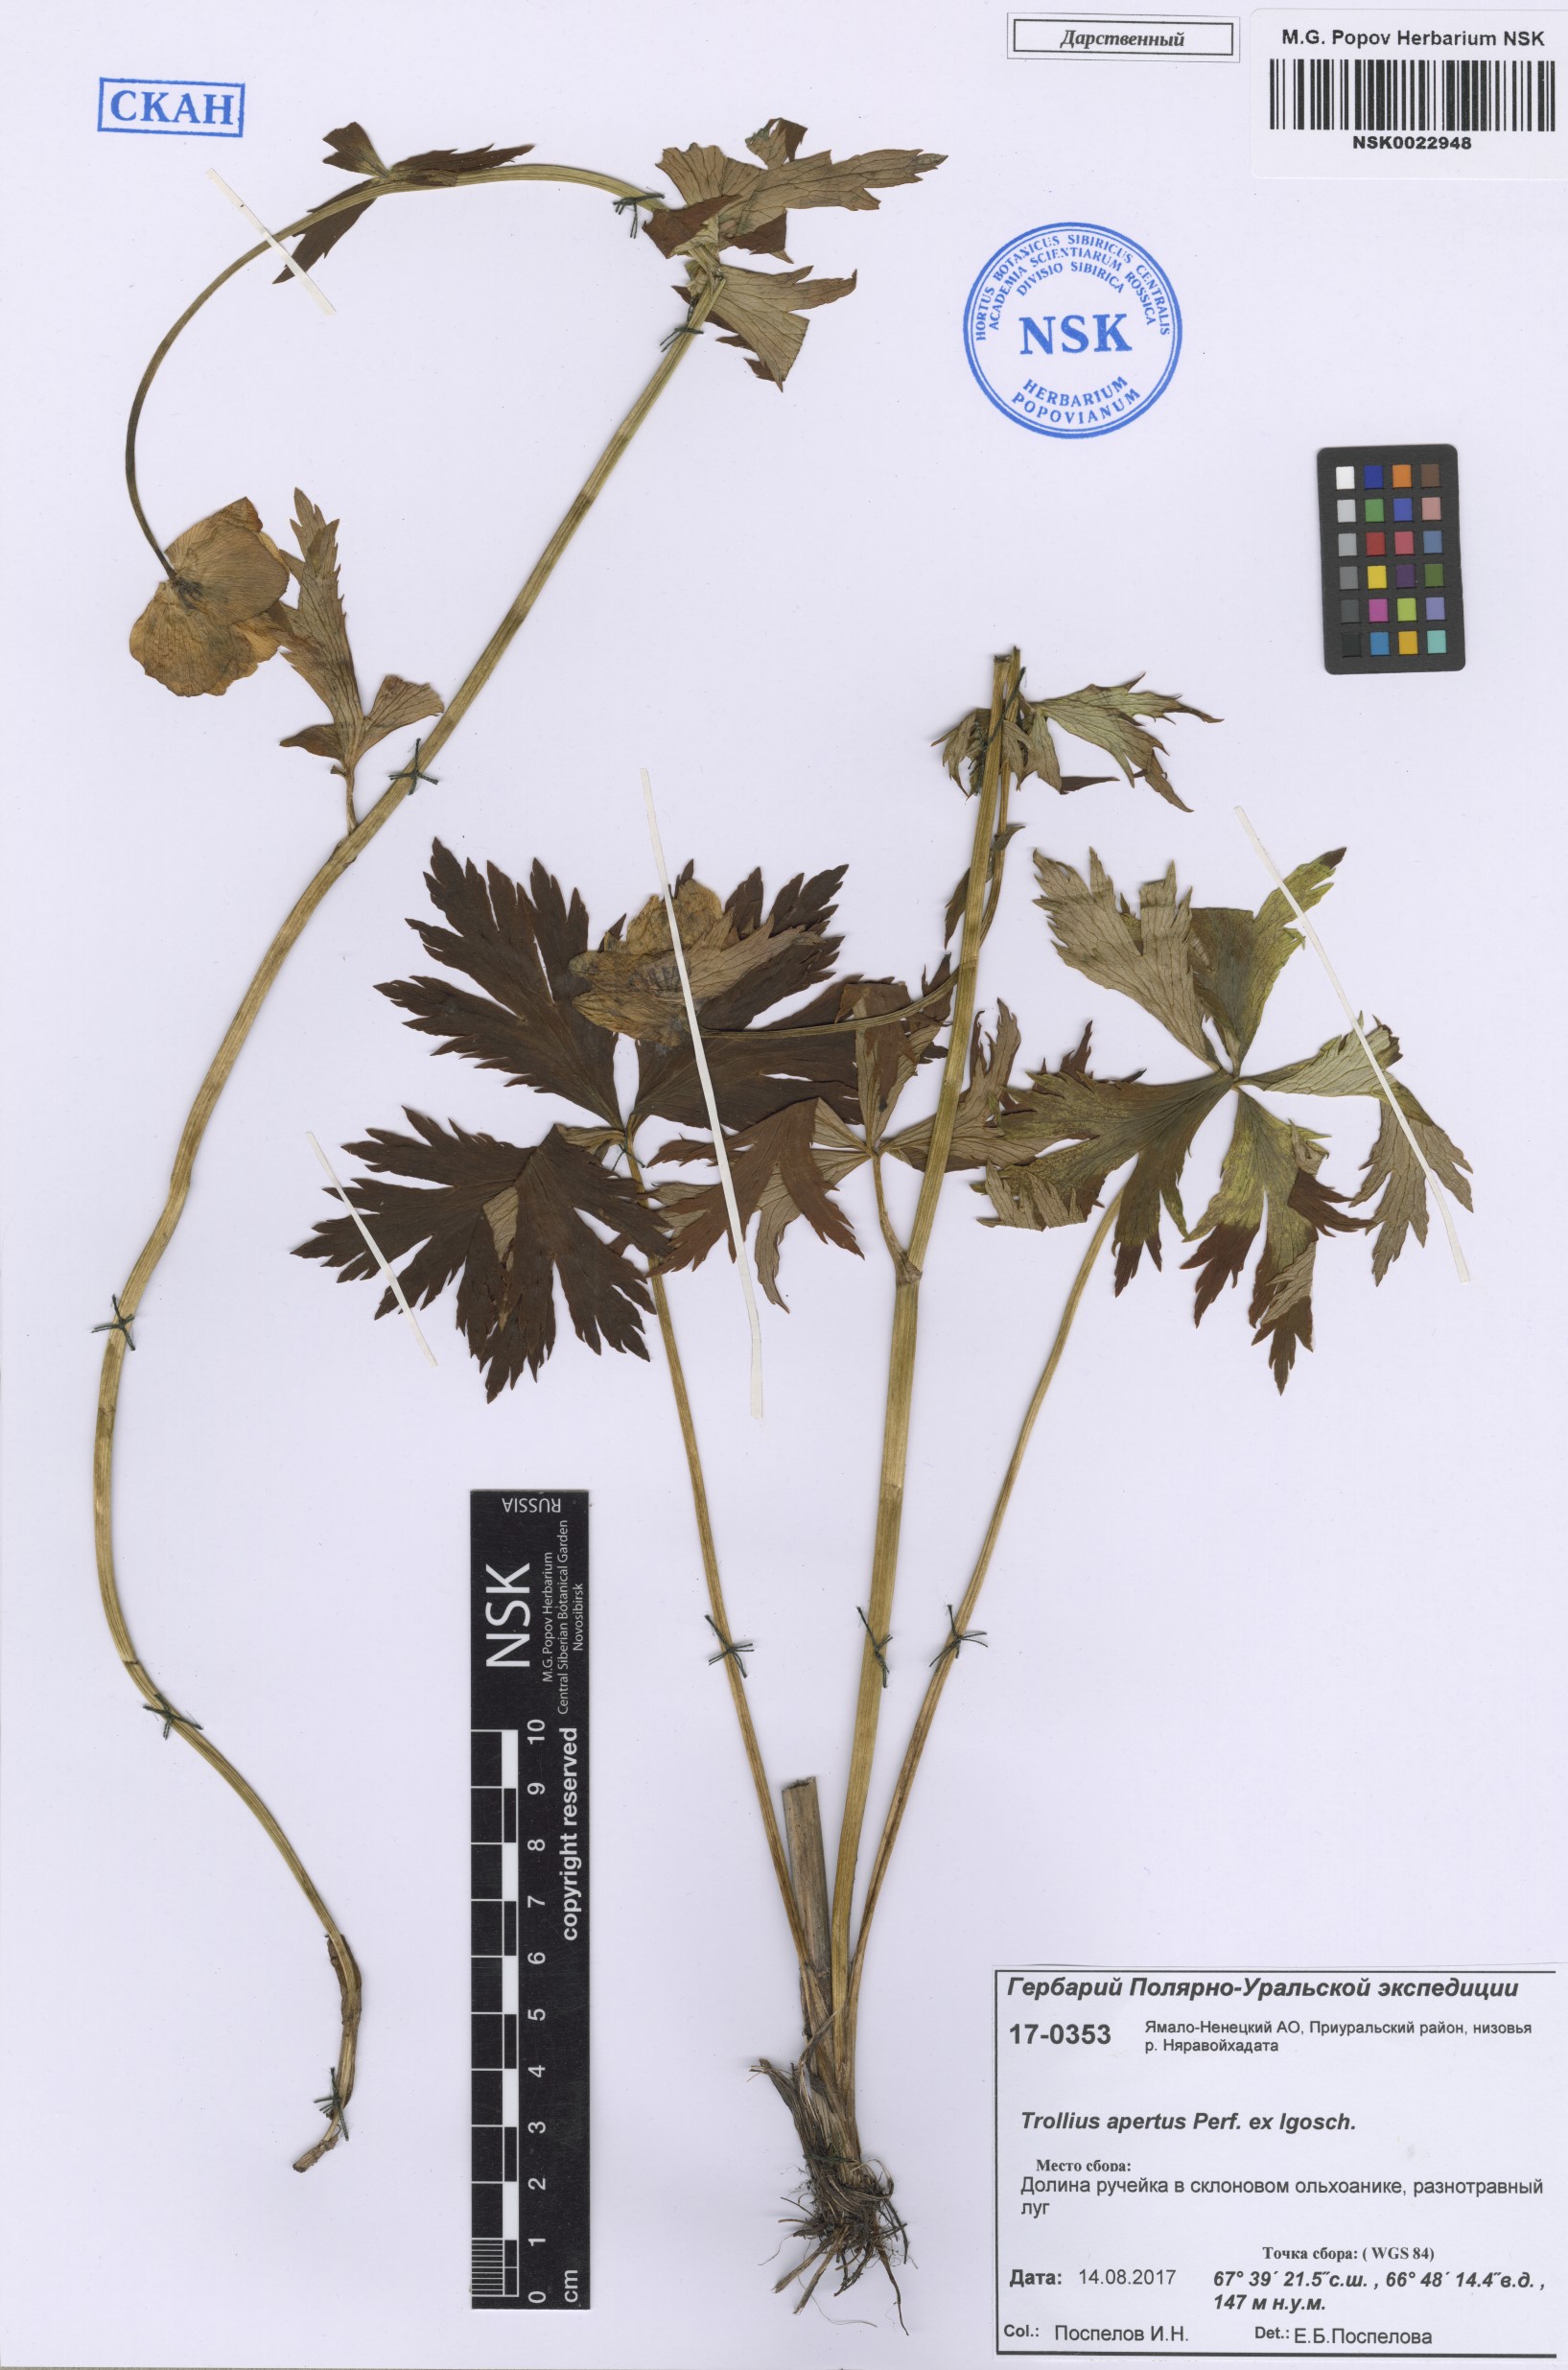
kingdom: Plantae
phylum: Tracheophyta
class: Magnoliopsida
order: Ranunculales
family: Ranunculaceae
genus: Trollius
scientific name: Trollius apertus
